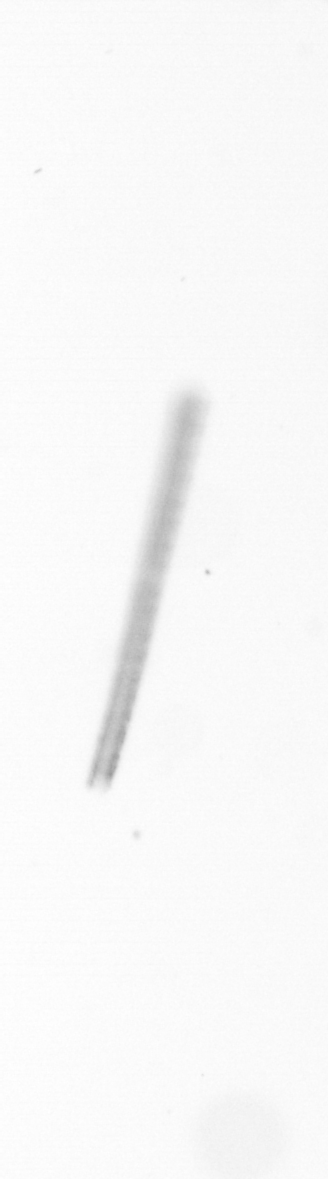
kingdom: Chromista
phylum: Ochrophyta
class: Bacillariophyceae
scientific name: Bacillariophyceae
